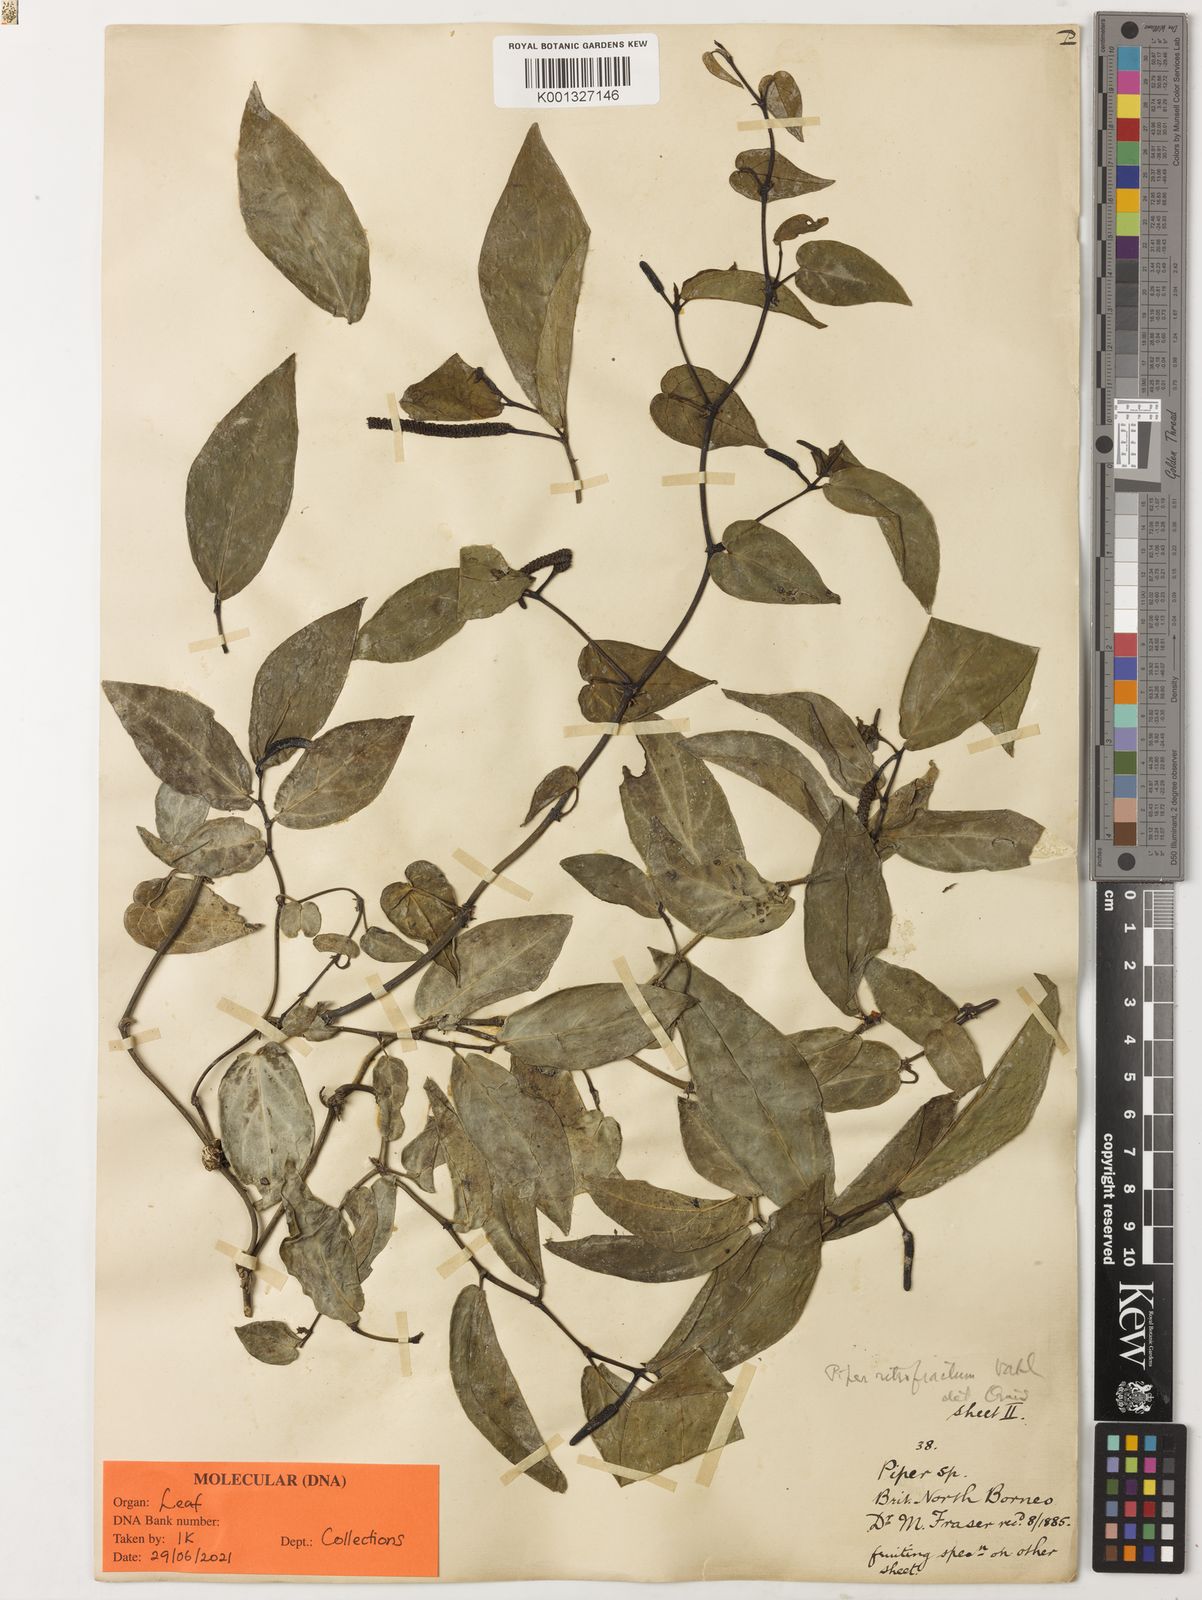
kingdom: Plantae
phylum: Tracheophyta
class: Magnoliopsida
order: Piperales
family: Piperaceae
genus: Piper
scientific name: Piper retrofractum
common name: Javanese long pepper
